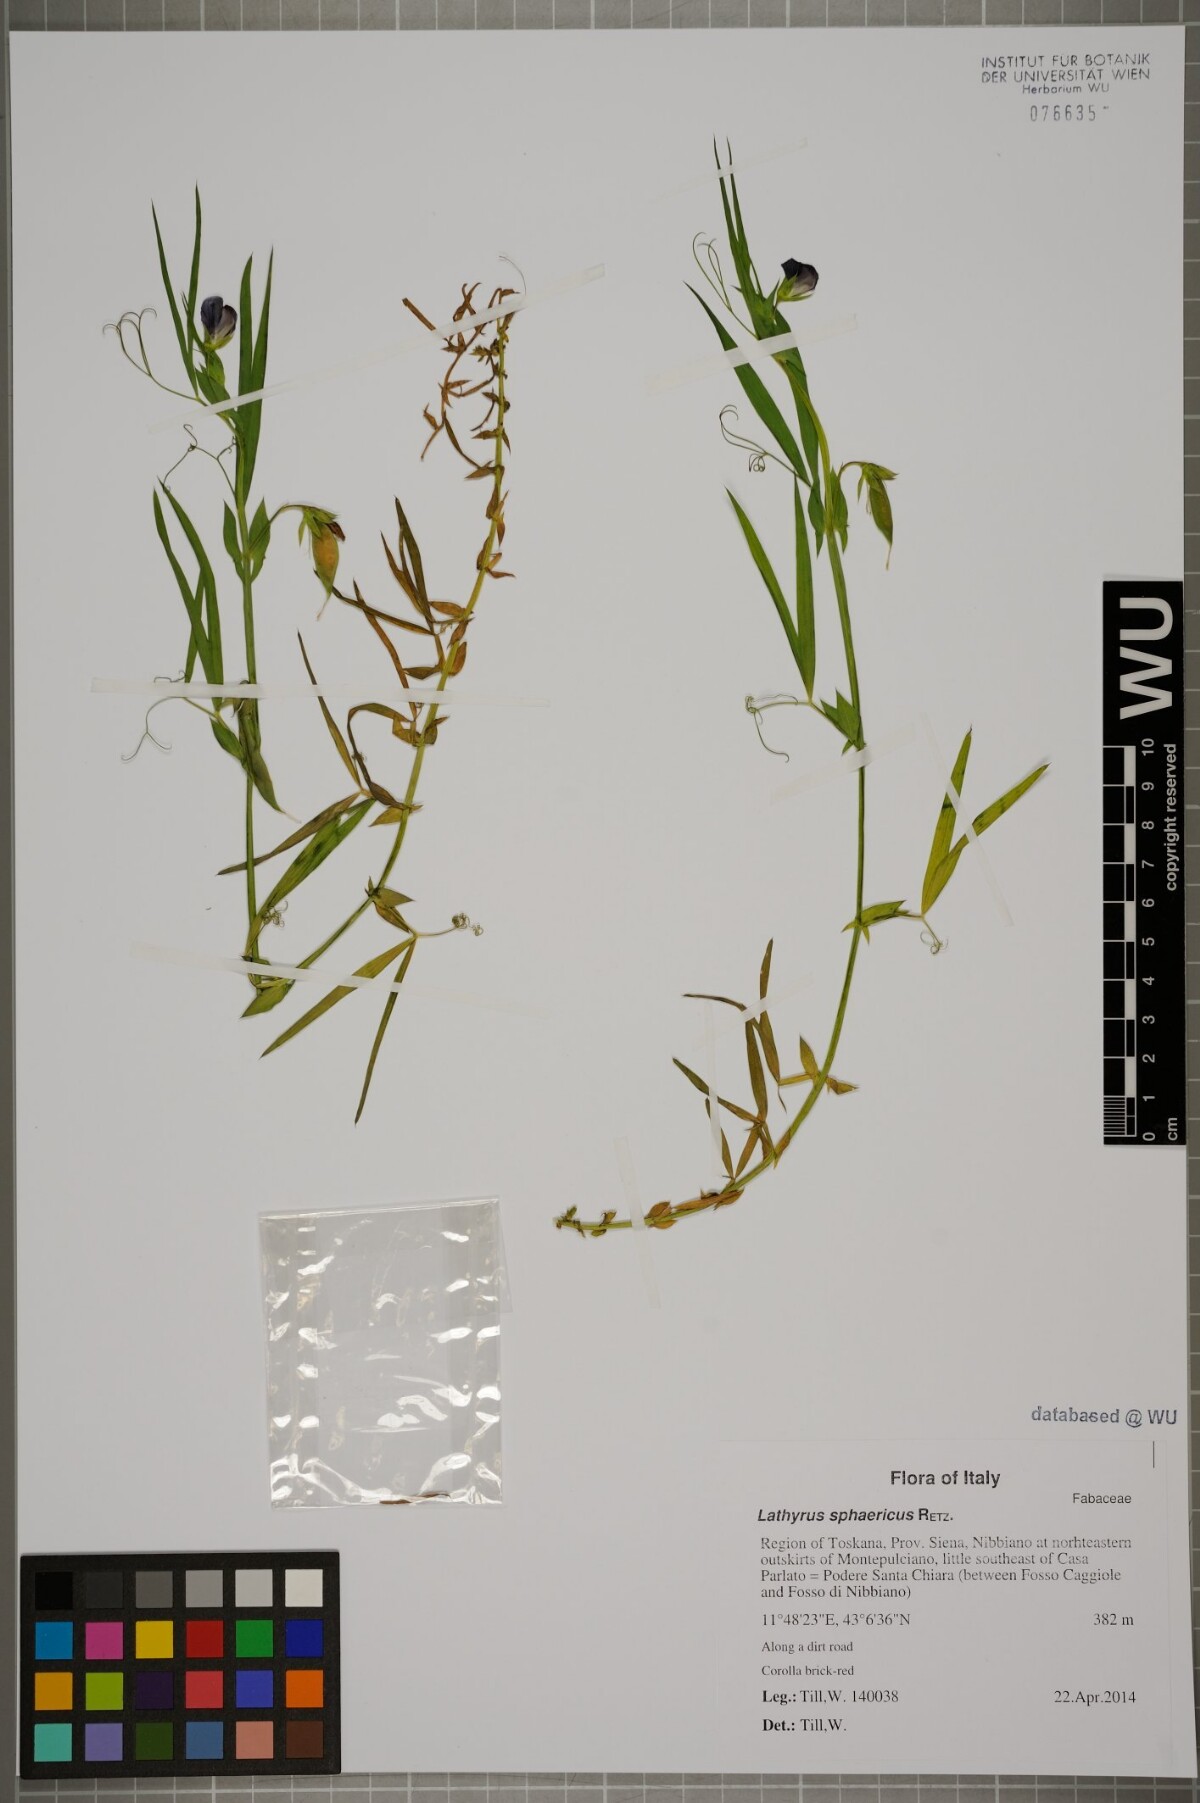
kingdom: Plantae
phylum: Tracheophyta
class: Magnoliopsida
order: Fabales
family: Fabaceae
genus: Lathyrus
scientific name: Lathyrus sphaericus
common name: Grass pea
